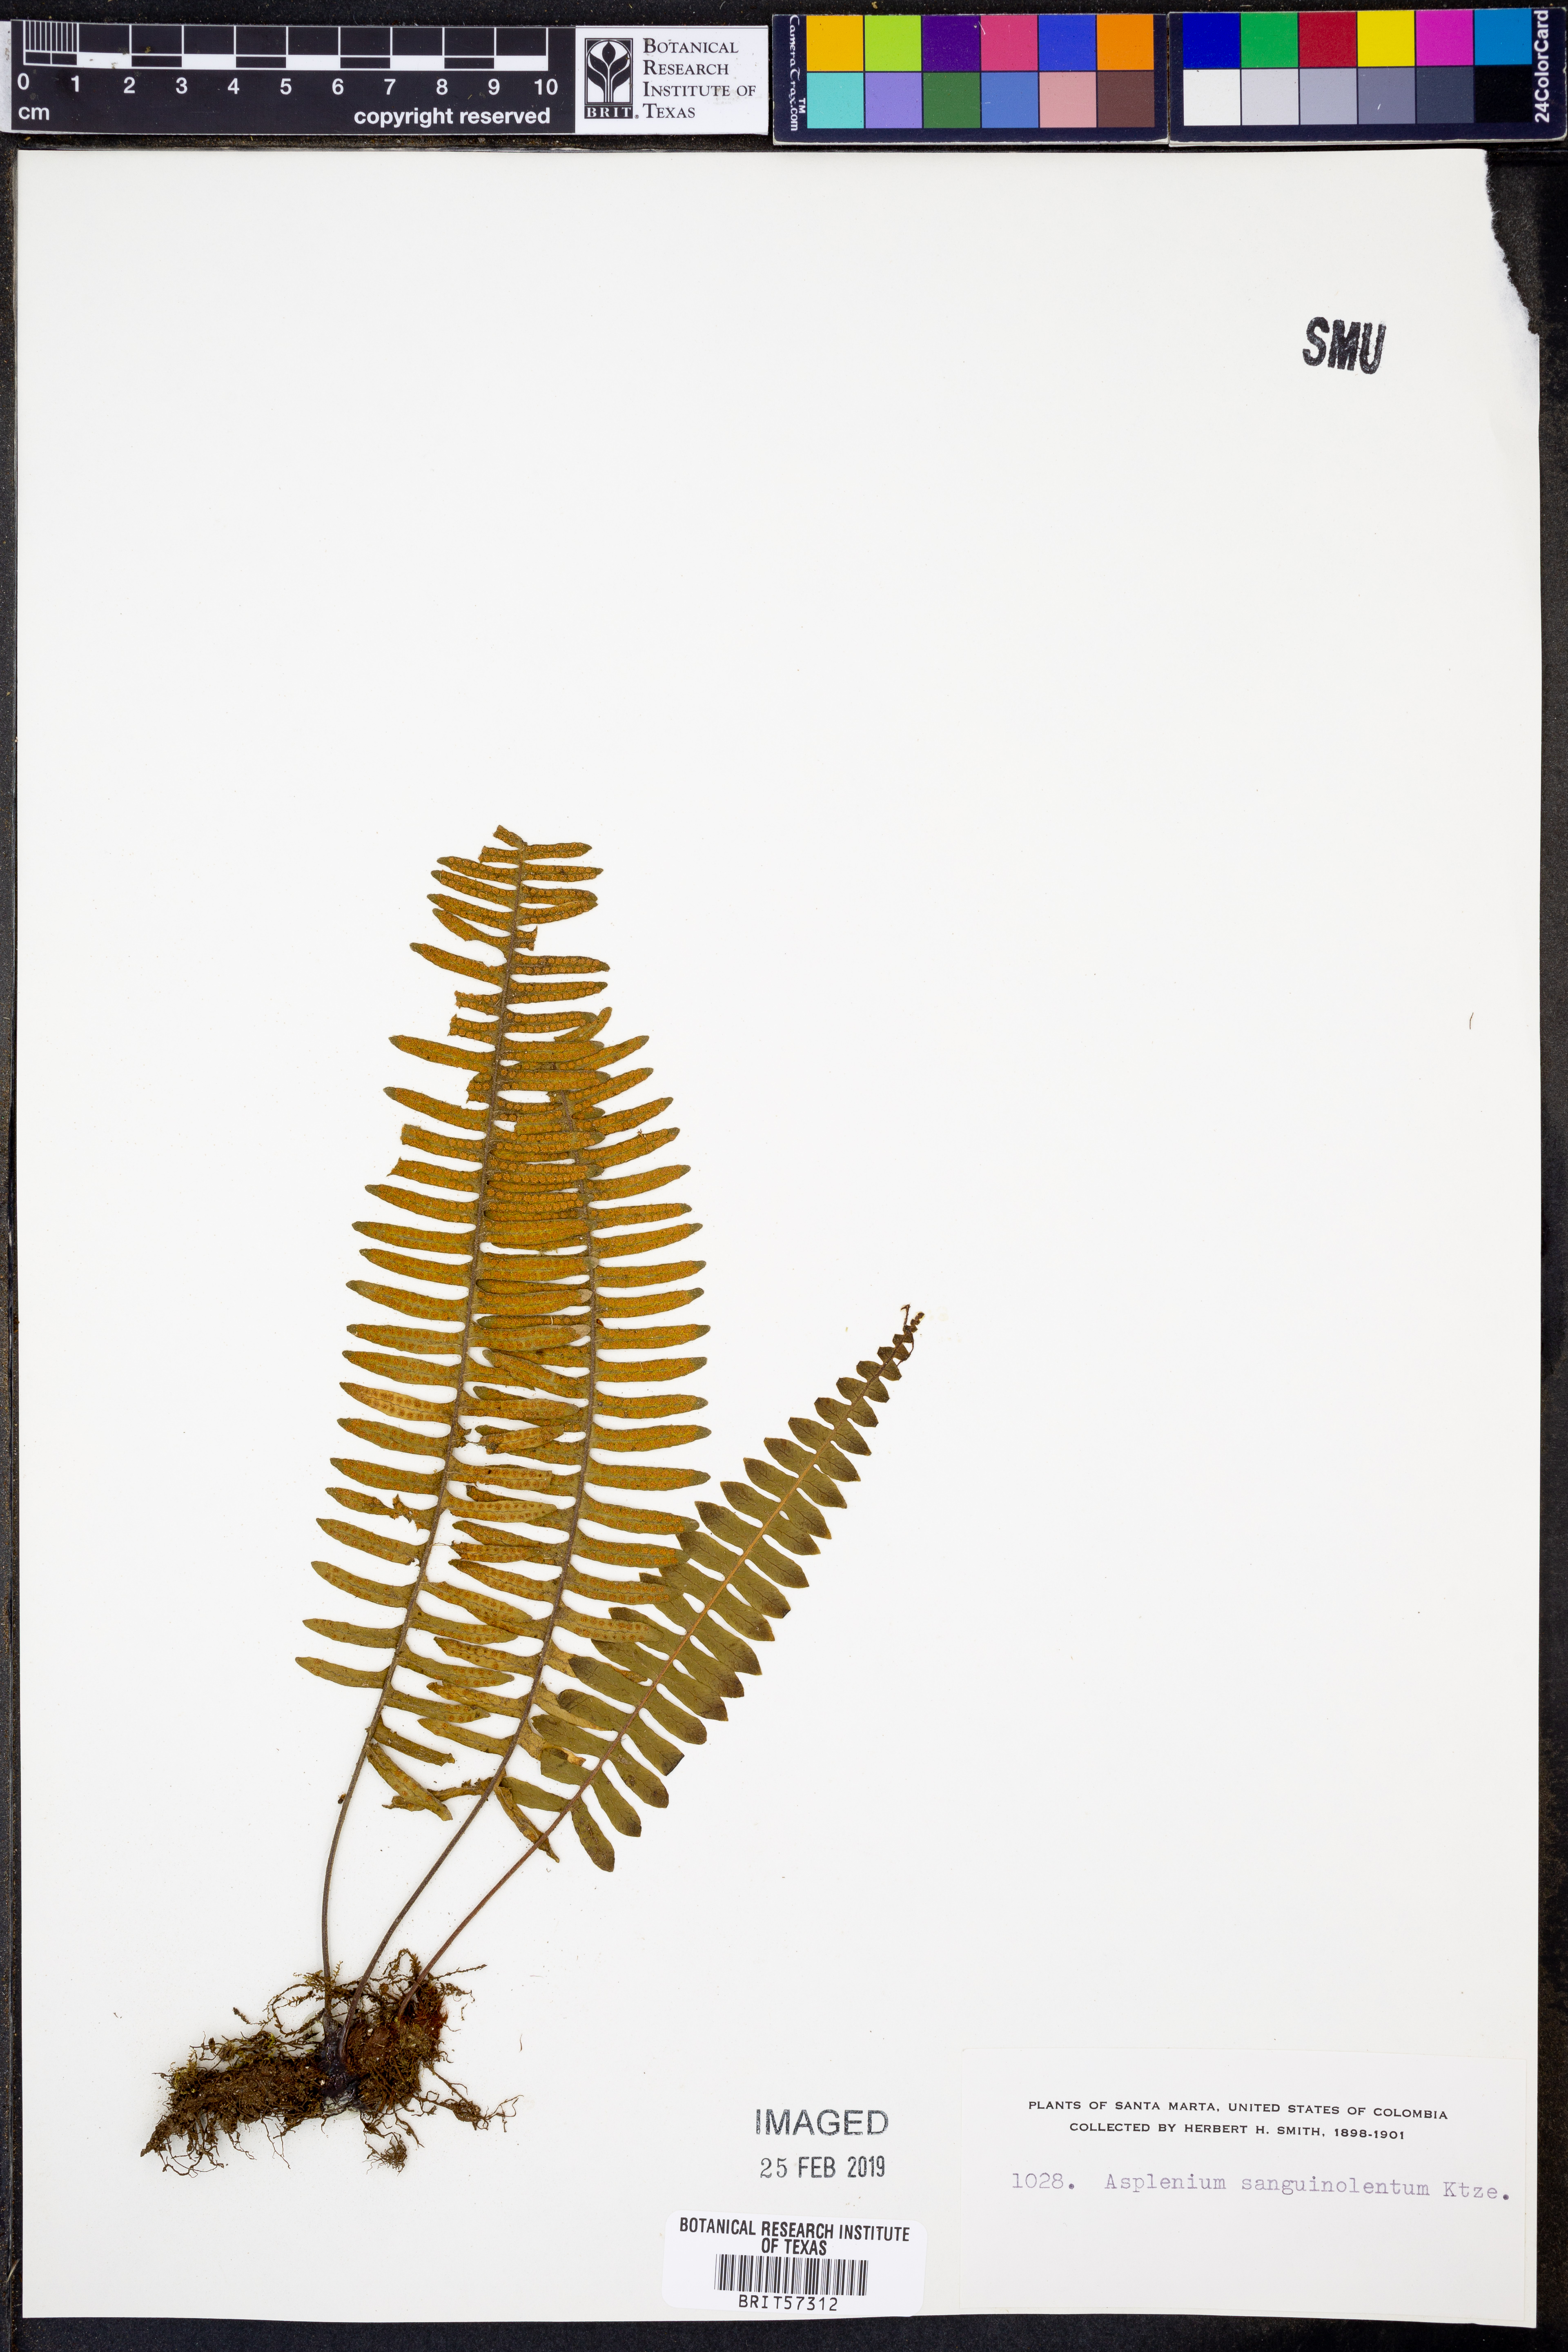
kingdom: Plantae
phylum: Tracheophyta
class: Polypodiopsida
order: Polypodiales
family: Aspleniaceae
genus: Asplenium
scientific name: Asplenium feei
